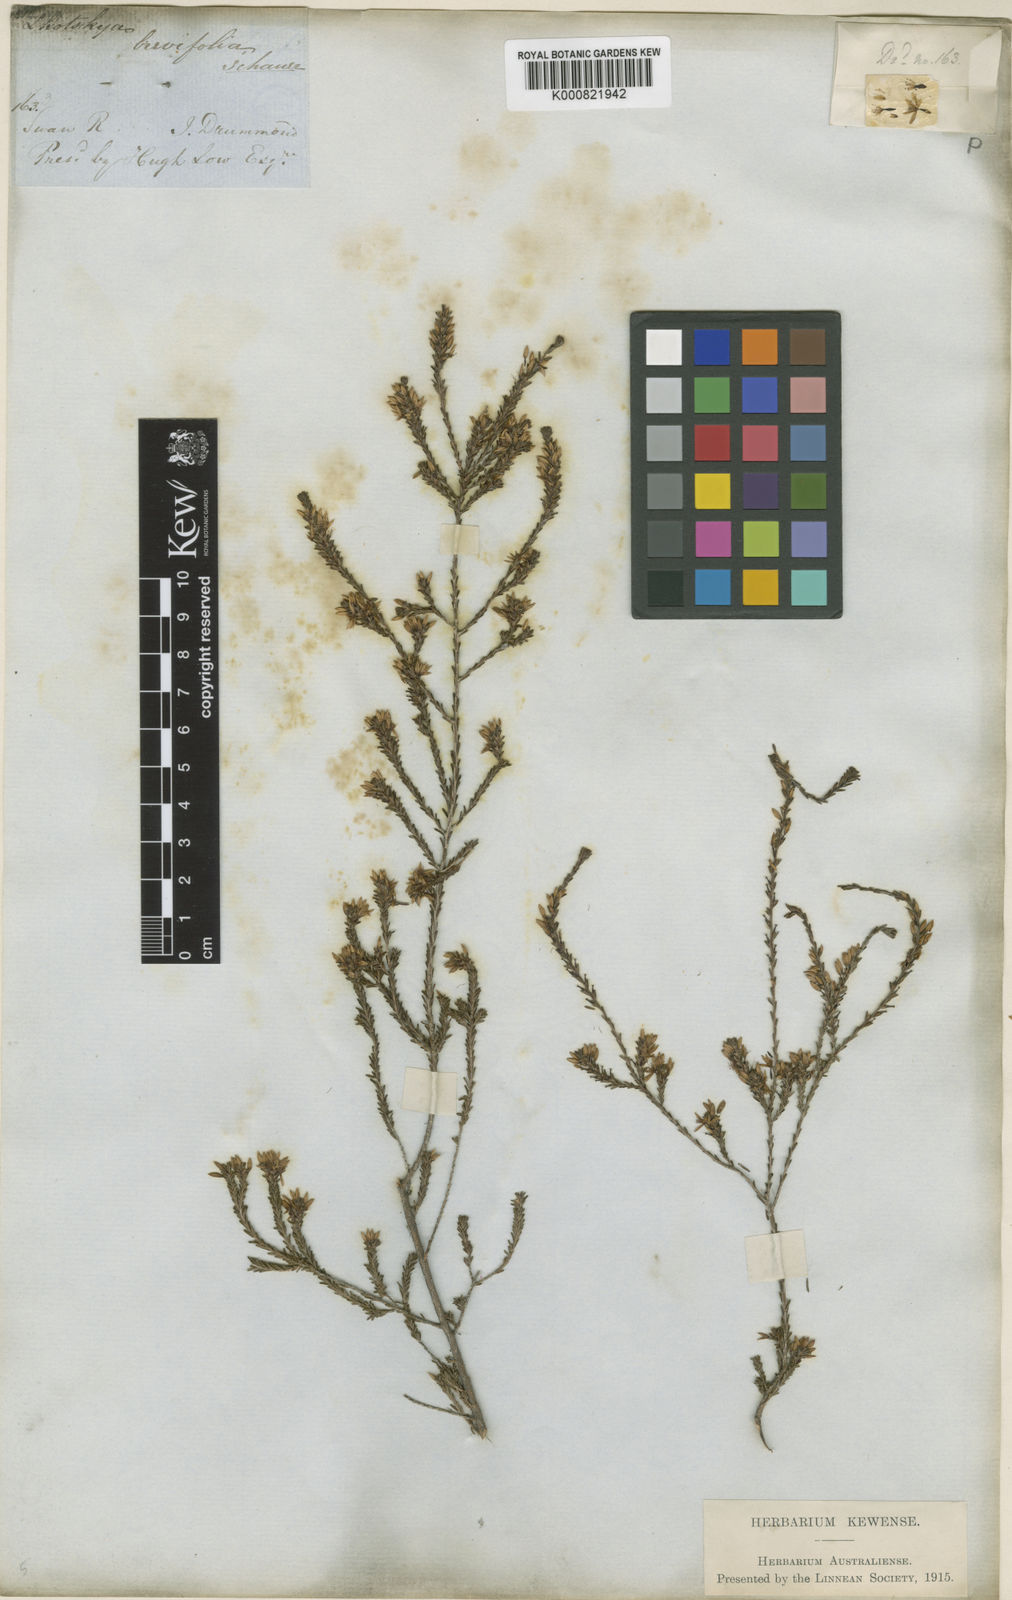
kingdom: Plantae
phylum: Tracheophyta
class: Magnoliopsida
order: Myrtales
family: Myrtaceae
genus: Calytrix
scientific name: Calytrix sylvana
